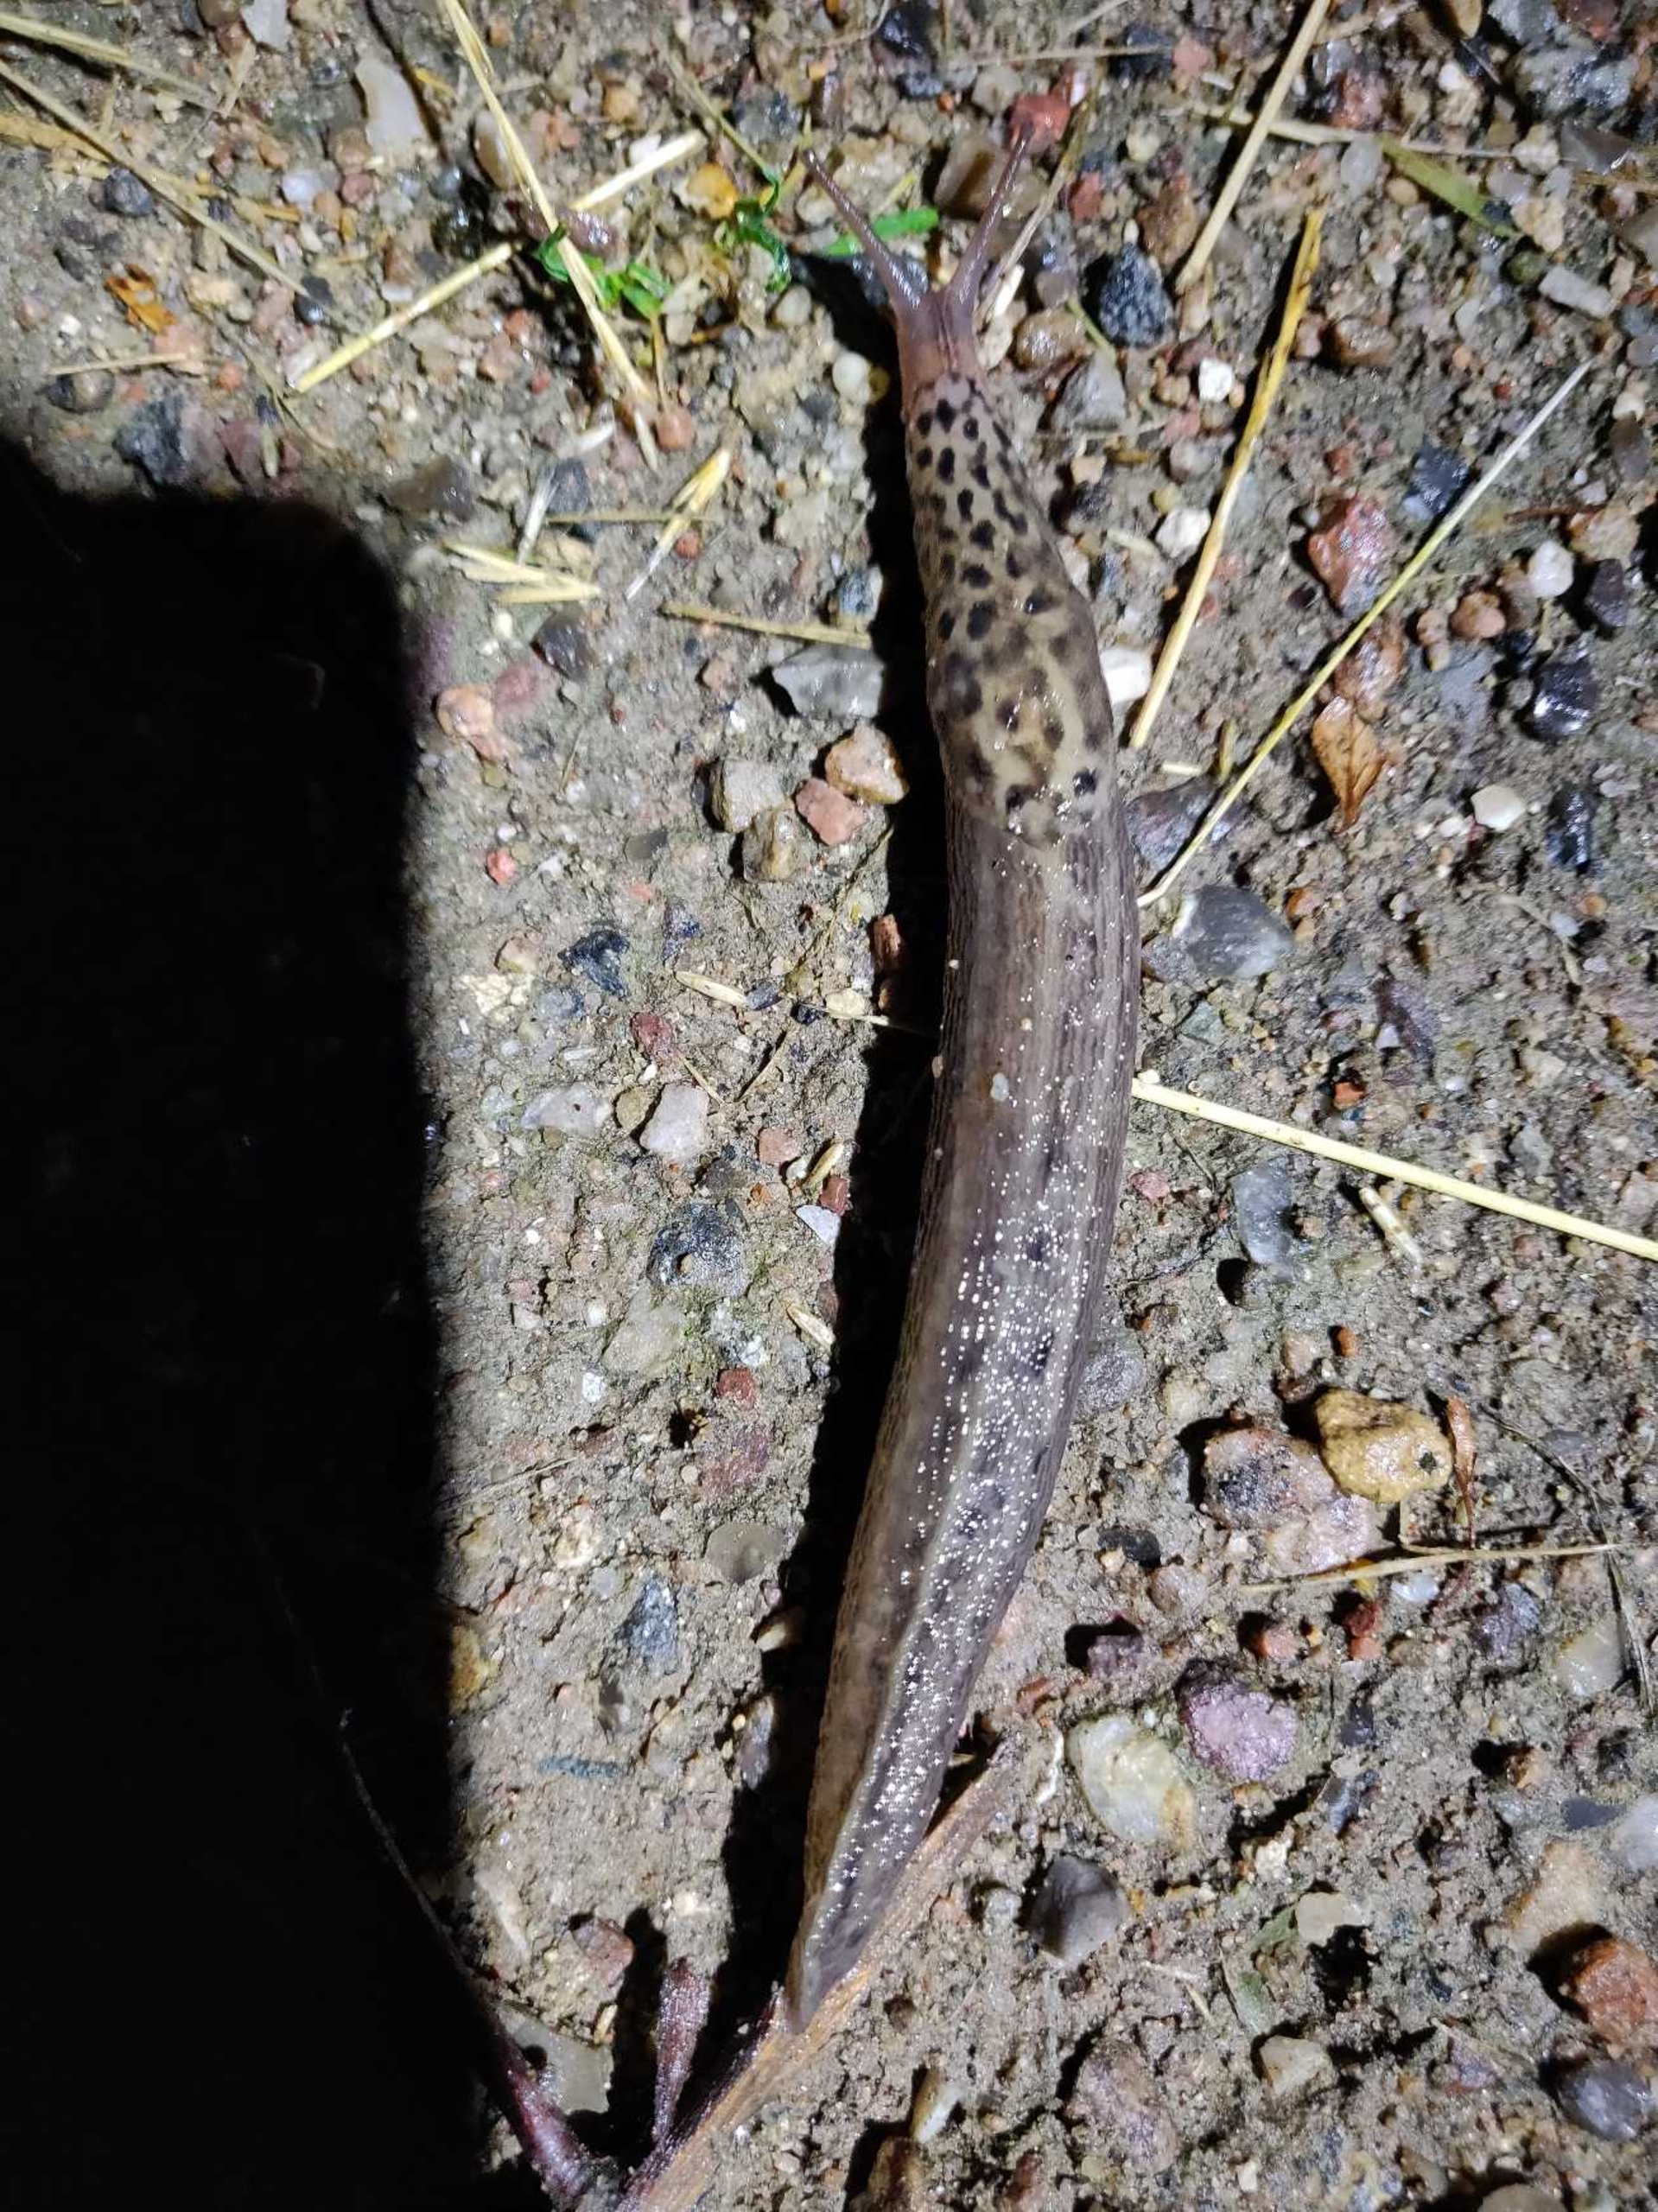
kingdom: Animalia
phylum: Mollusca
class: Gastropoda
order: Stylommatophora
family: Limacidae
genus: Limax
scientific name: Limax maximus
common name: Pantersnegl
